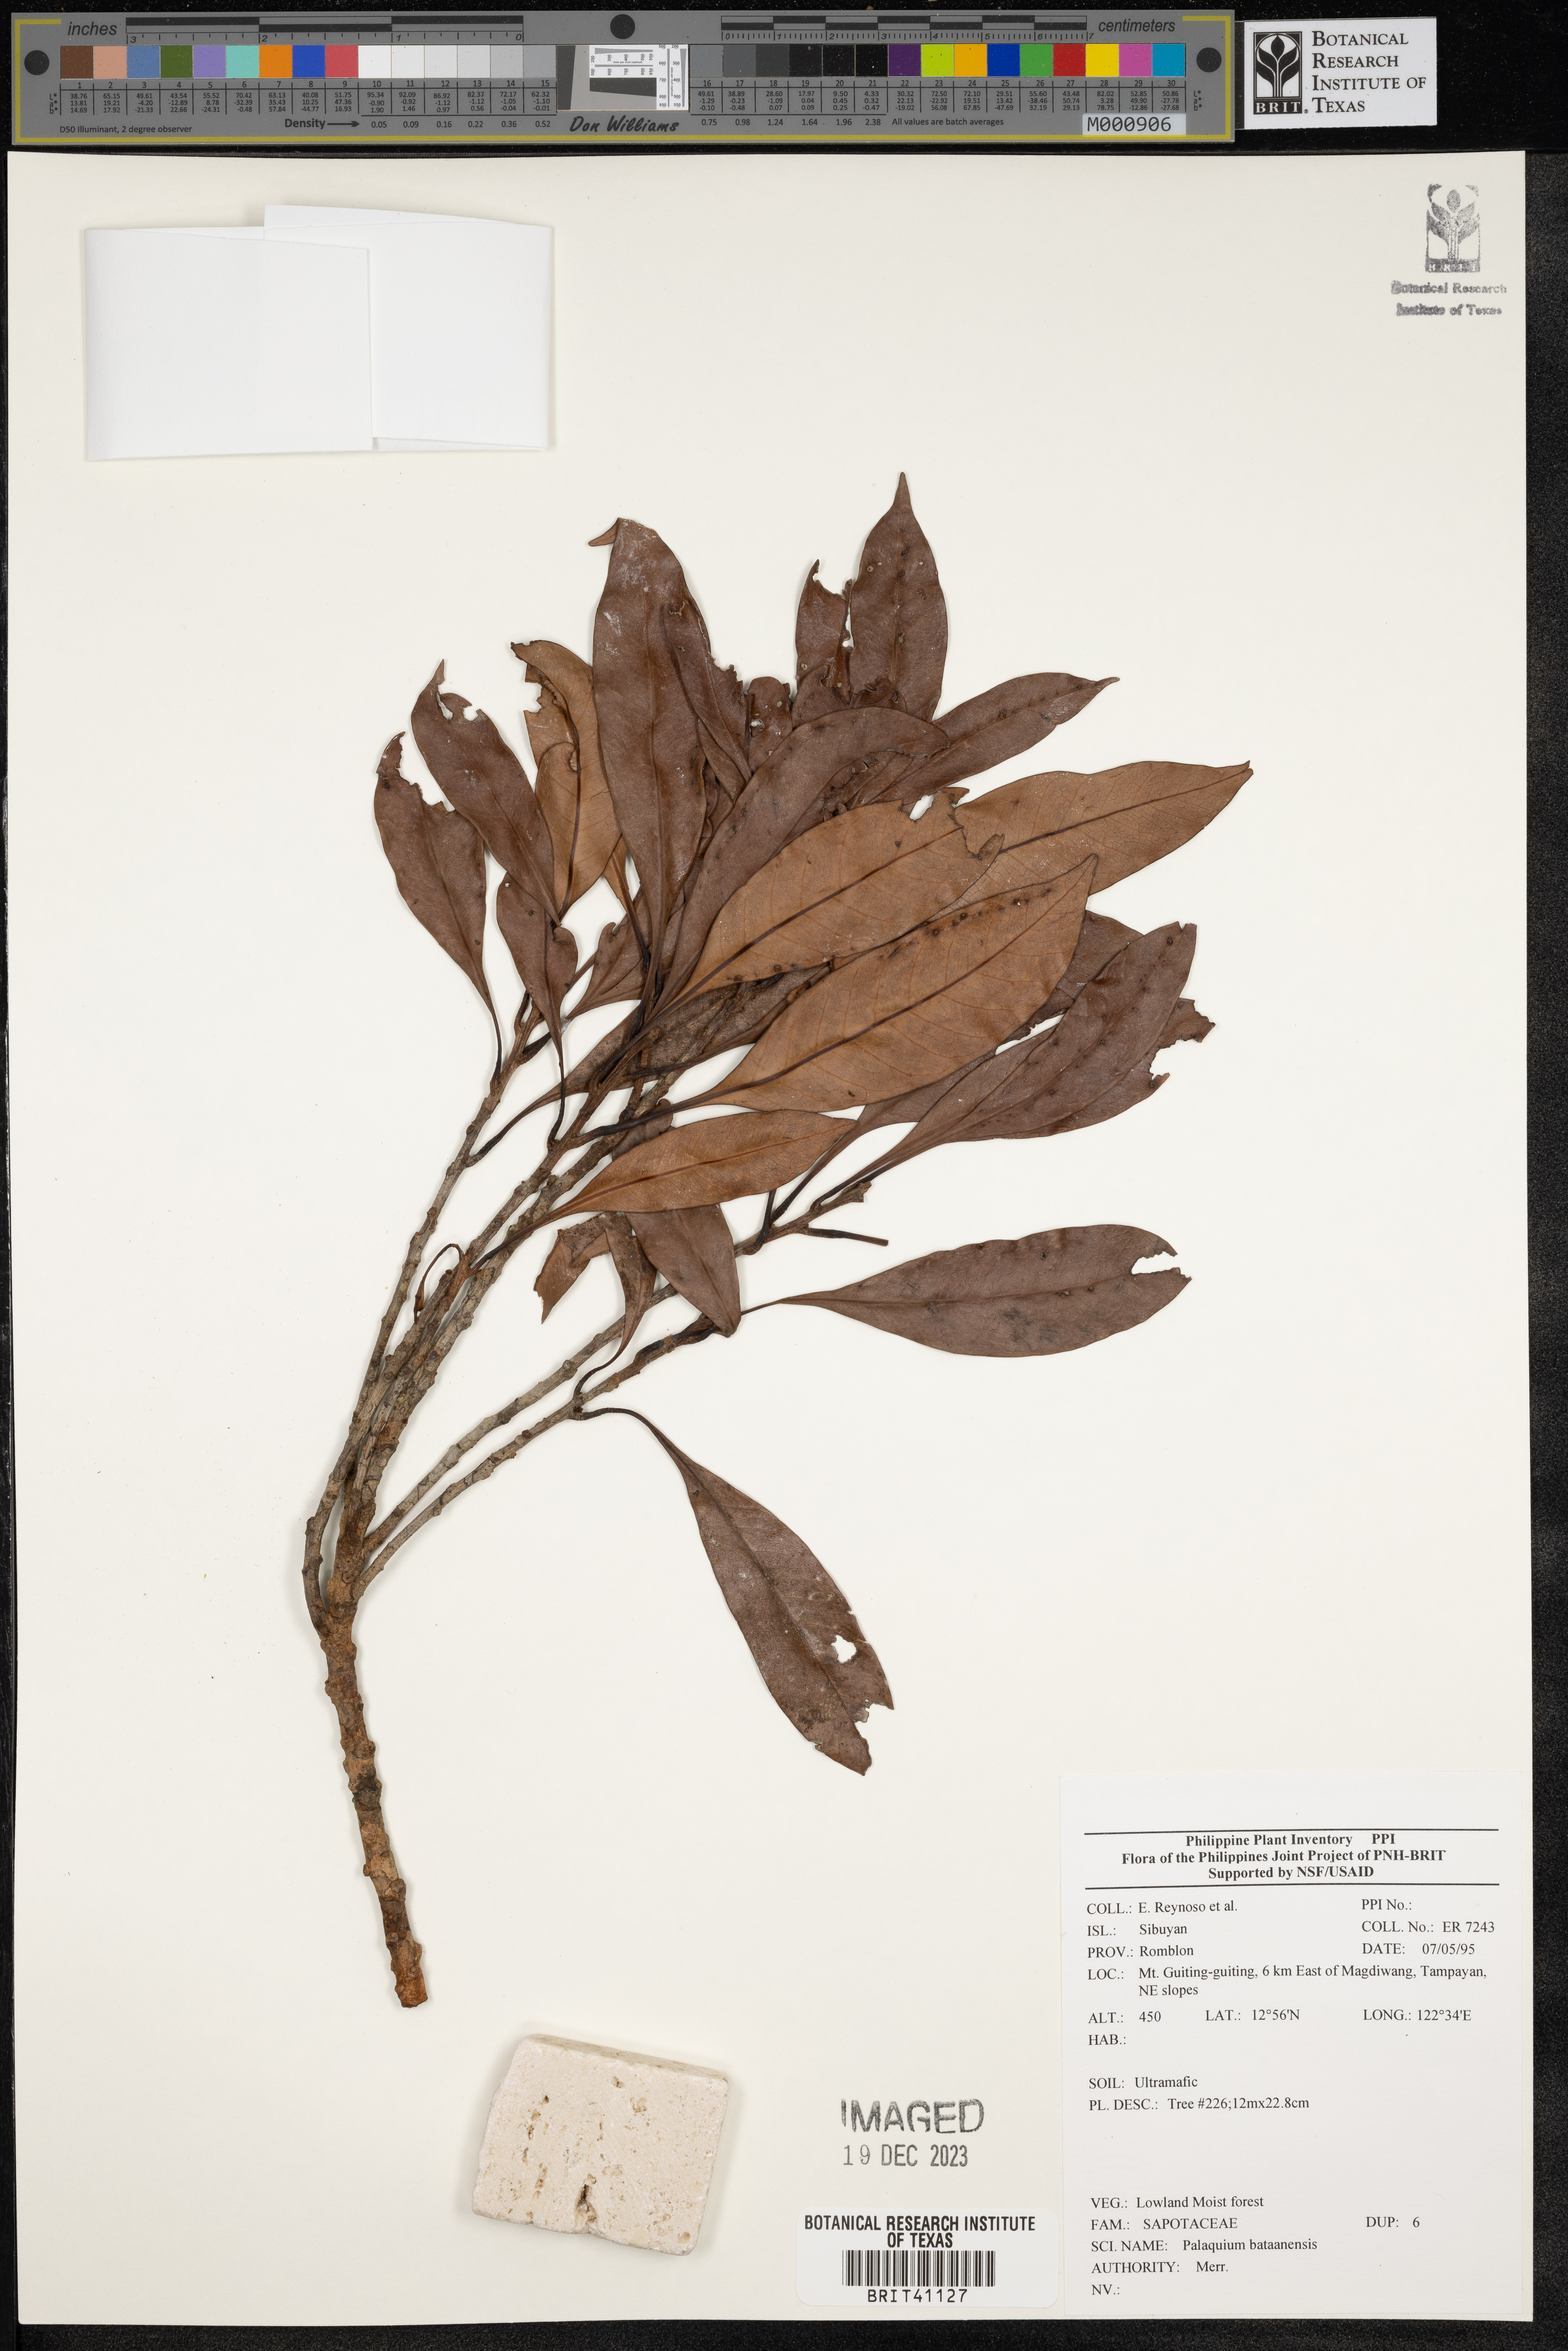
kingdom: Plantae
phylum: Tracheophyta
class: Magnoliopsida
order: Ericales
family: Sapotaceae
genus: Palaquium
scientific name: Palaquium bataanense
